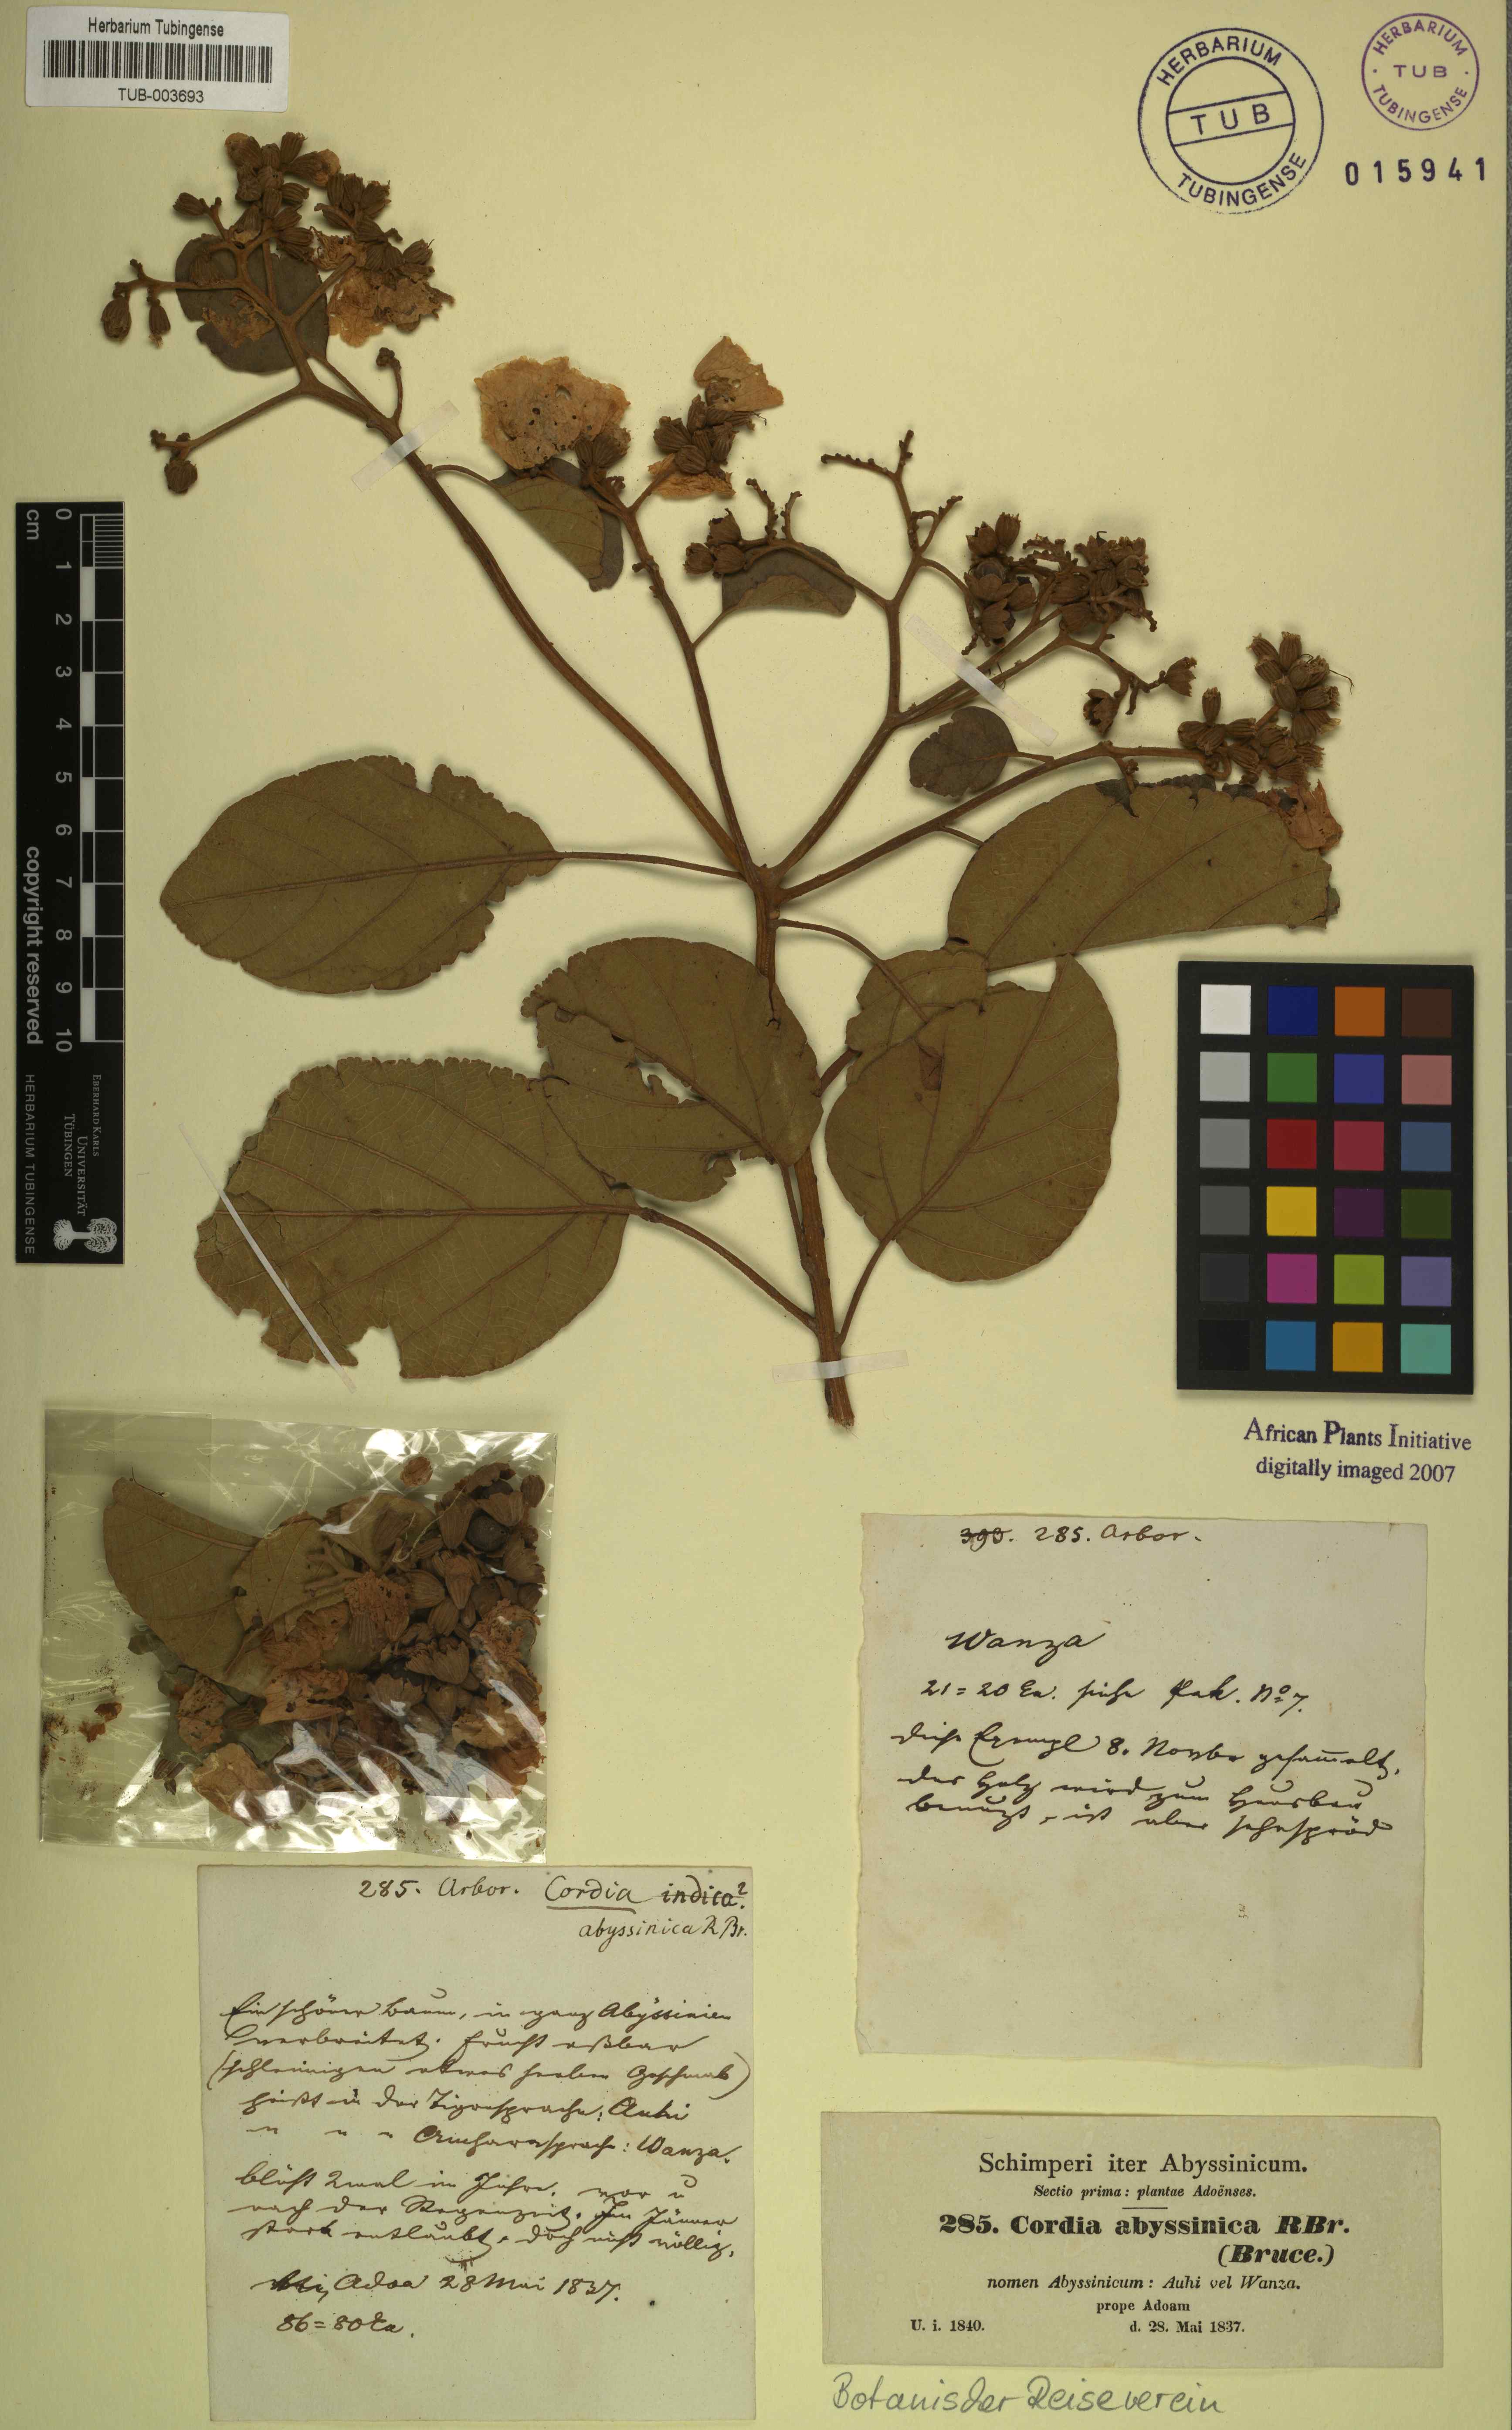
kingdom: Plantae
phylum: Tracheophyta
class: Magnoliopsida
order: Boraginales
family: Cordiaceae
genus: Cordia
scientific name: Cordia crenata
